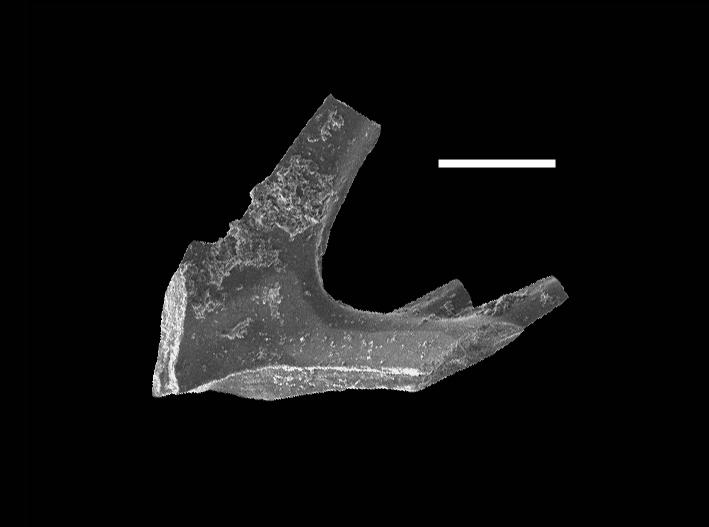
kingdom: Animalia
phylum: Chordata
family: Prioniodinidae
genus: Aspelundia
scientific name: Aspelundia fluegeli
